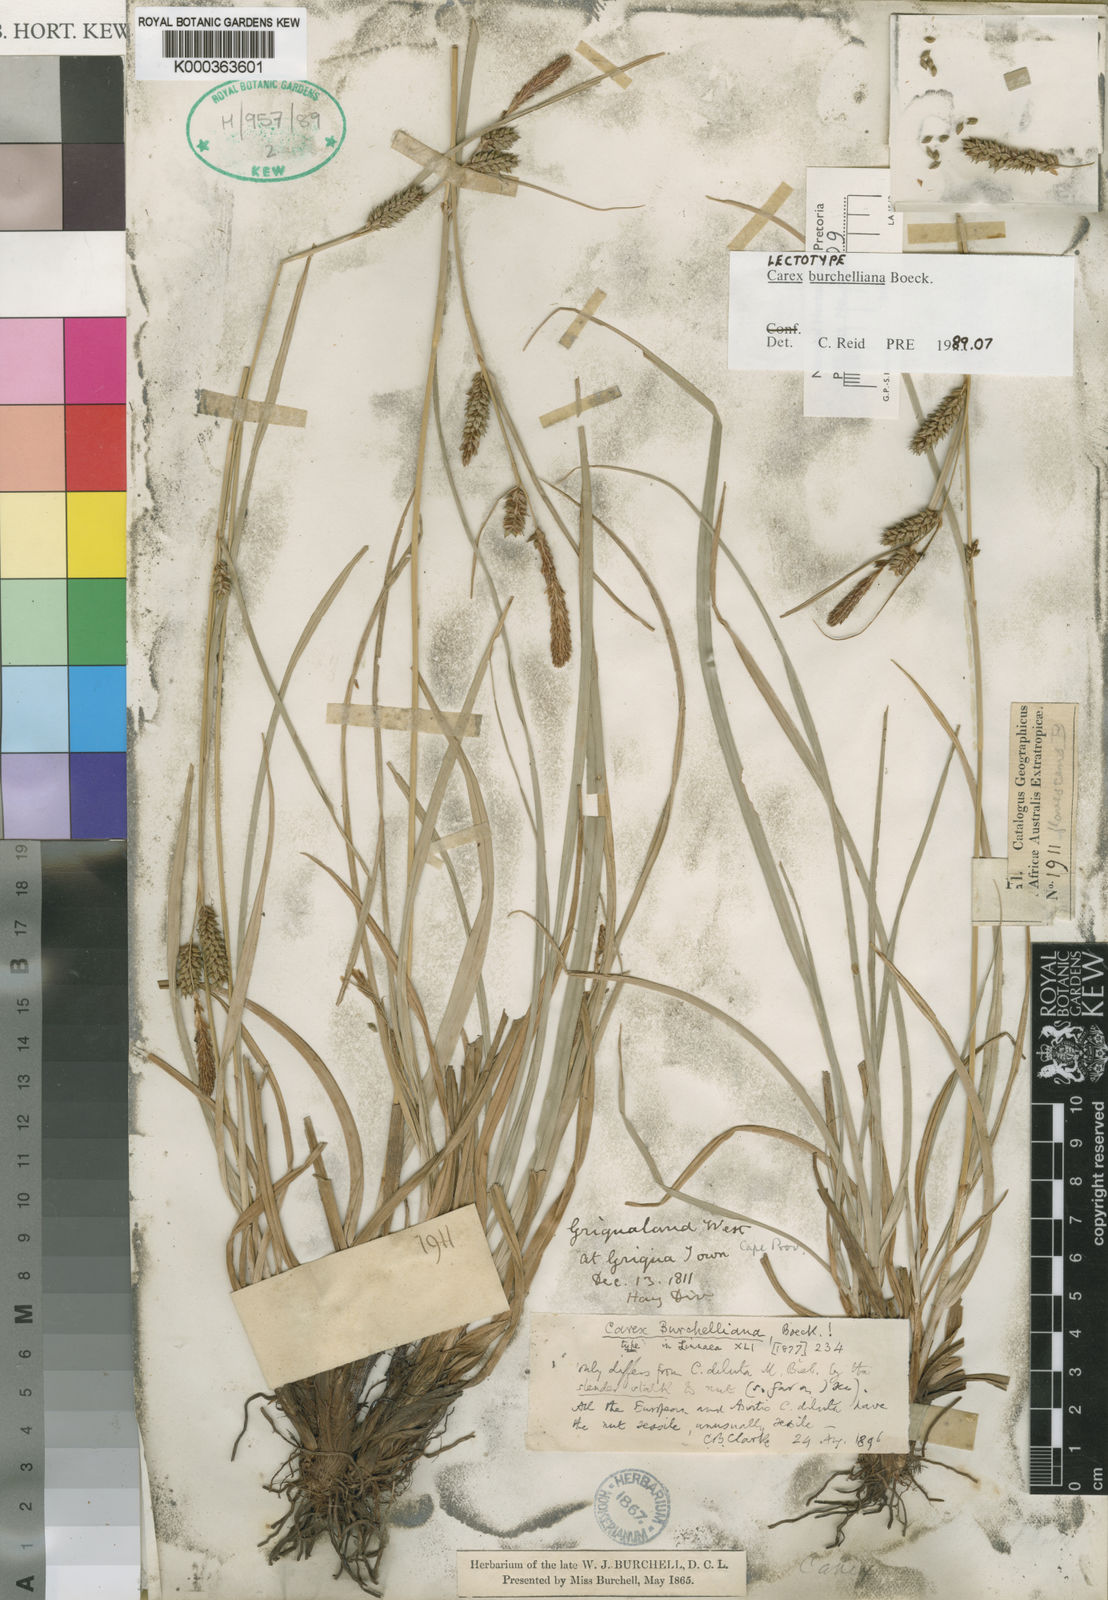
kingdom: Plantae
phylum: Tracheophyta
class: Liliopsida
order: Poales
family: Cyperaceae
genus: Carex
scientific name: Carex burchelliana
